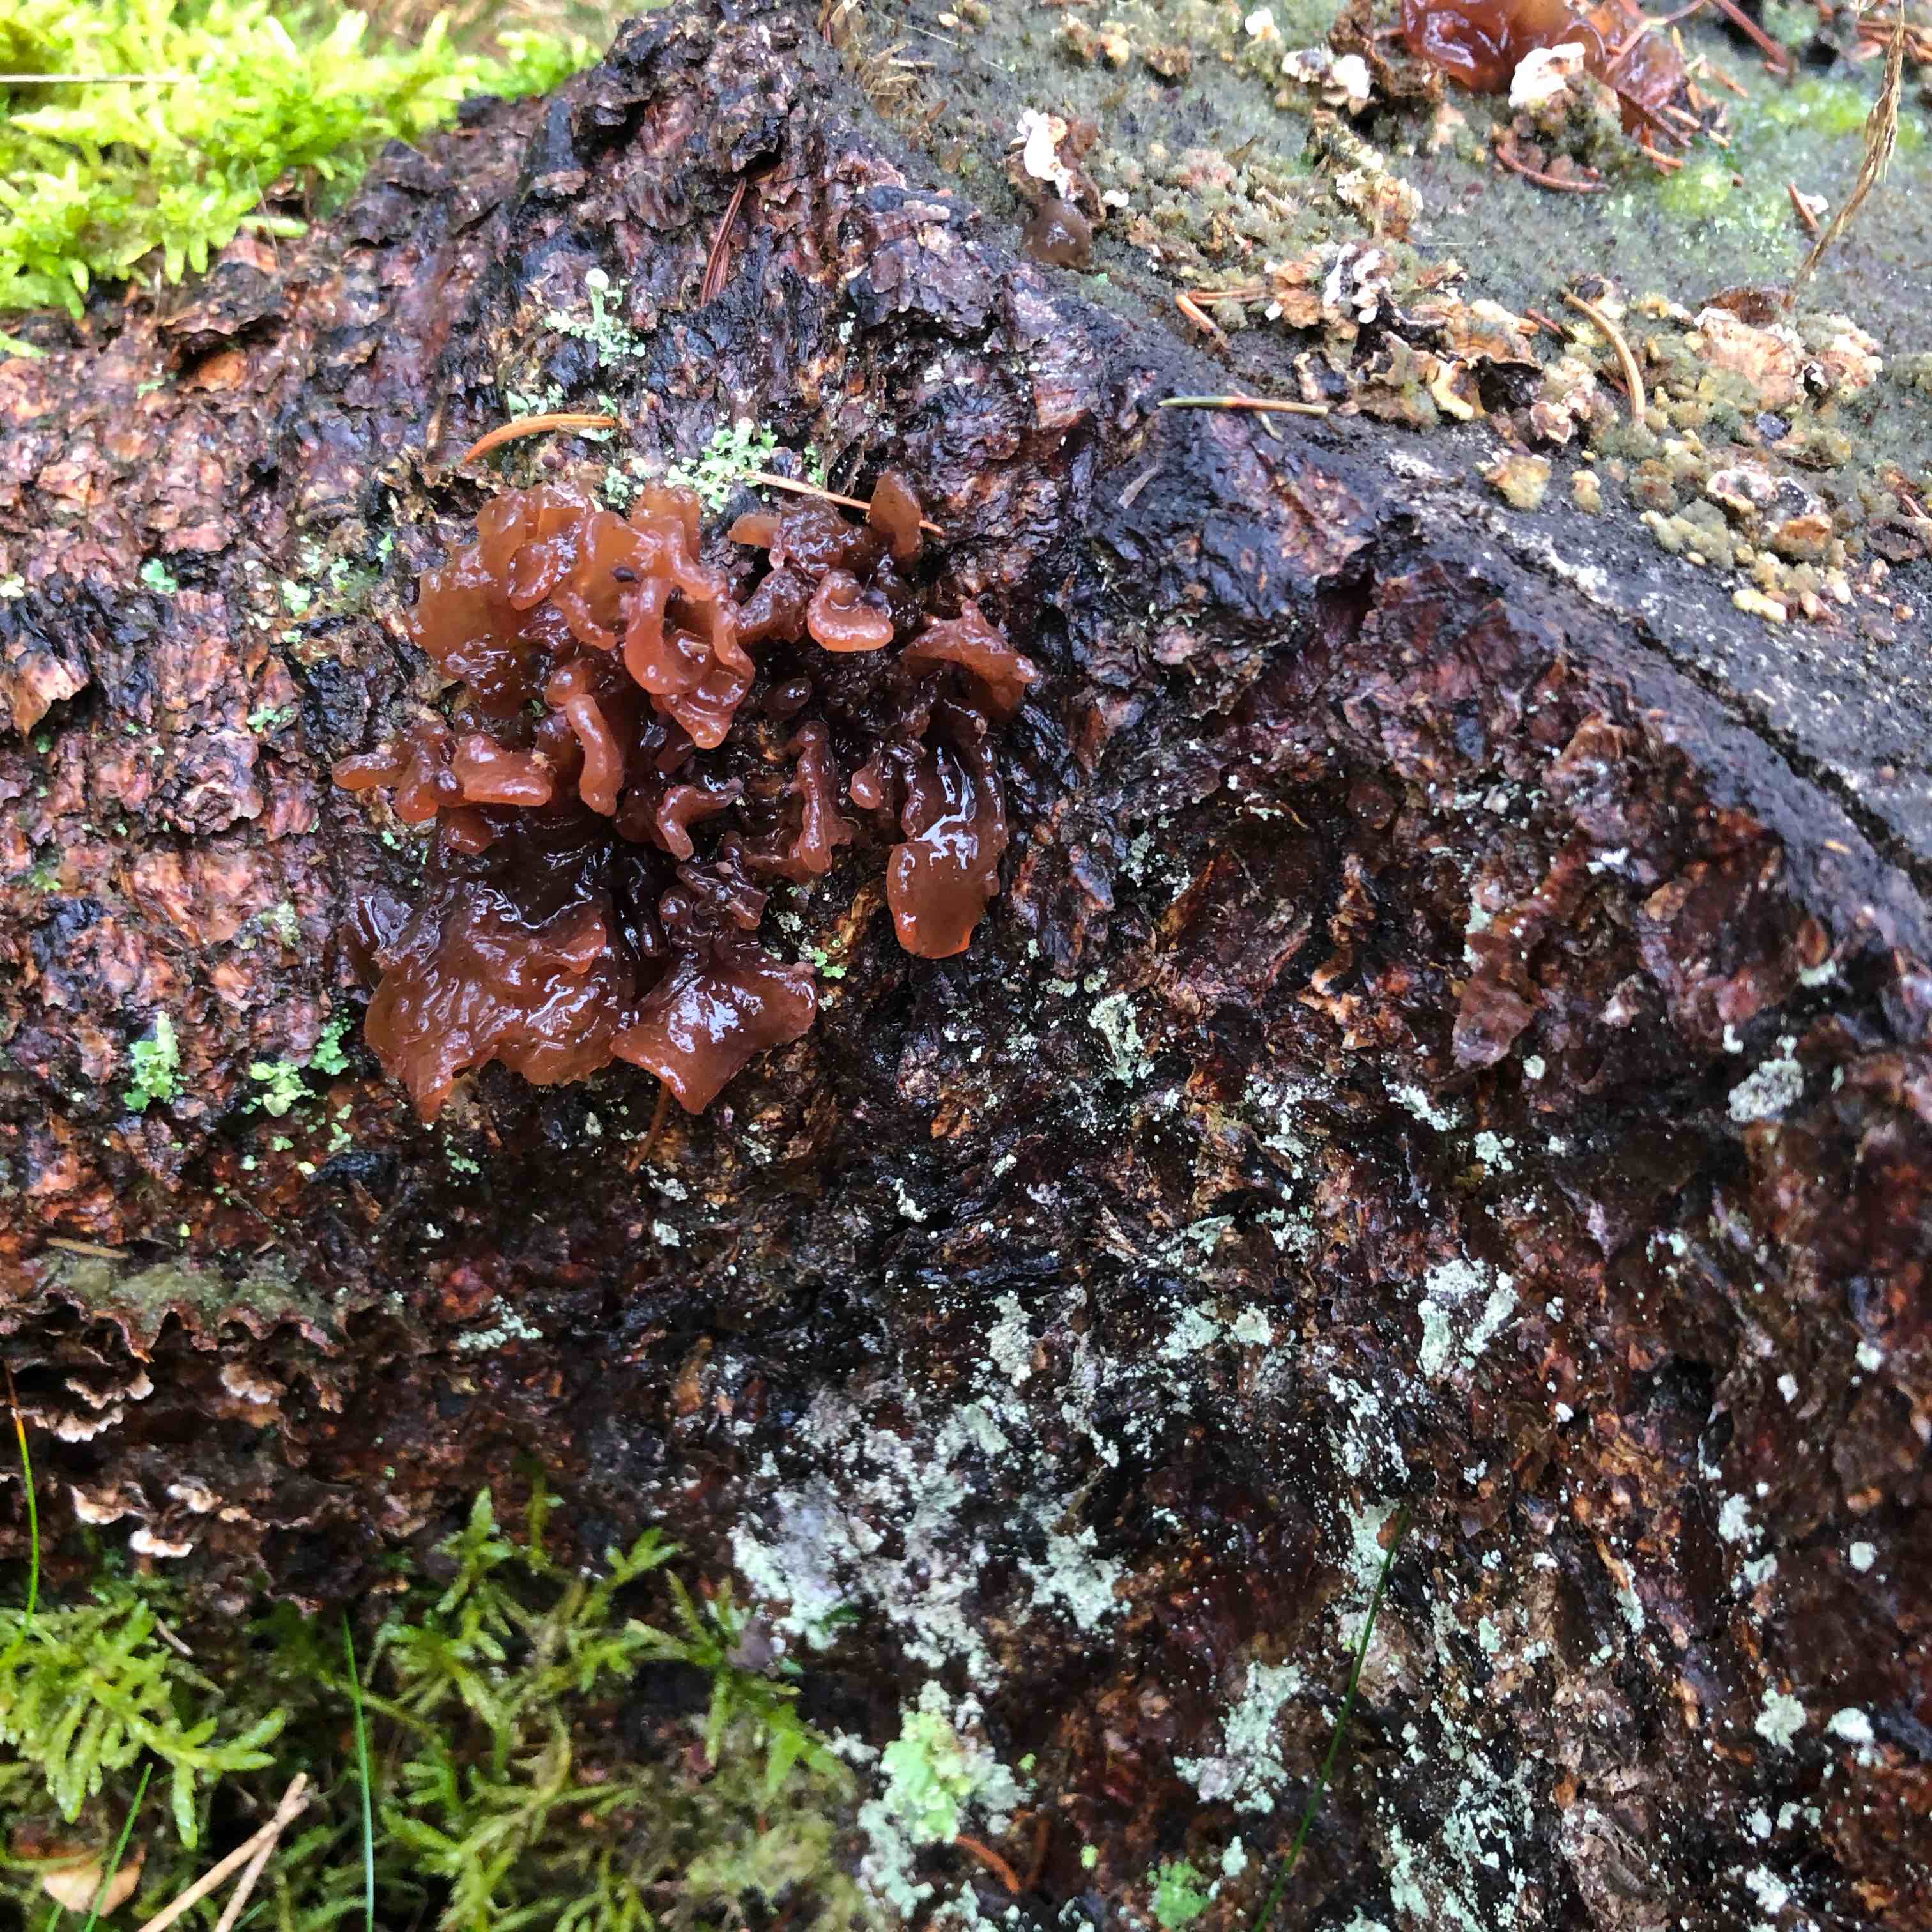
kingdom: Fungi
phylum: Basidiomycota
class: Tremellomycetes
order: Tremellales
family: Tremellaceae
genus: Phaeotremella
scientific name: Phaeotremella foliacea
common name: brun bævresvamp
